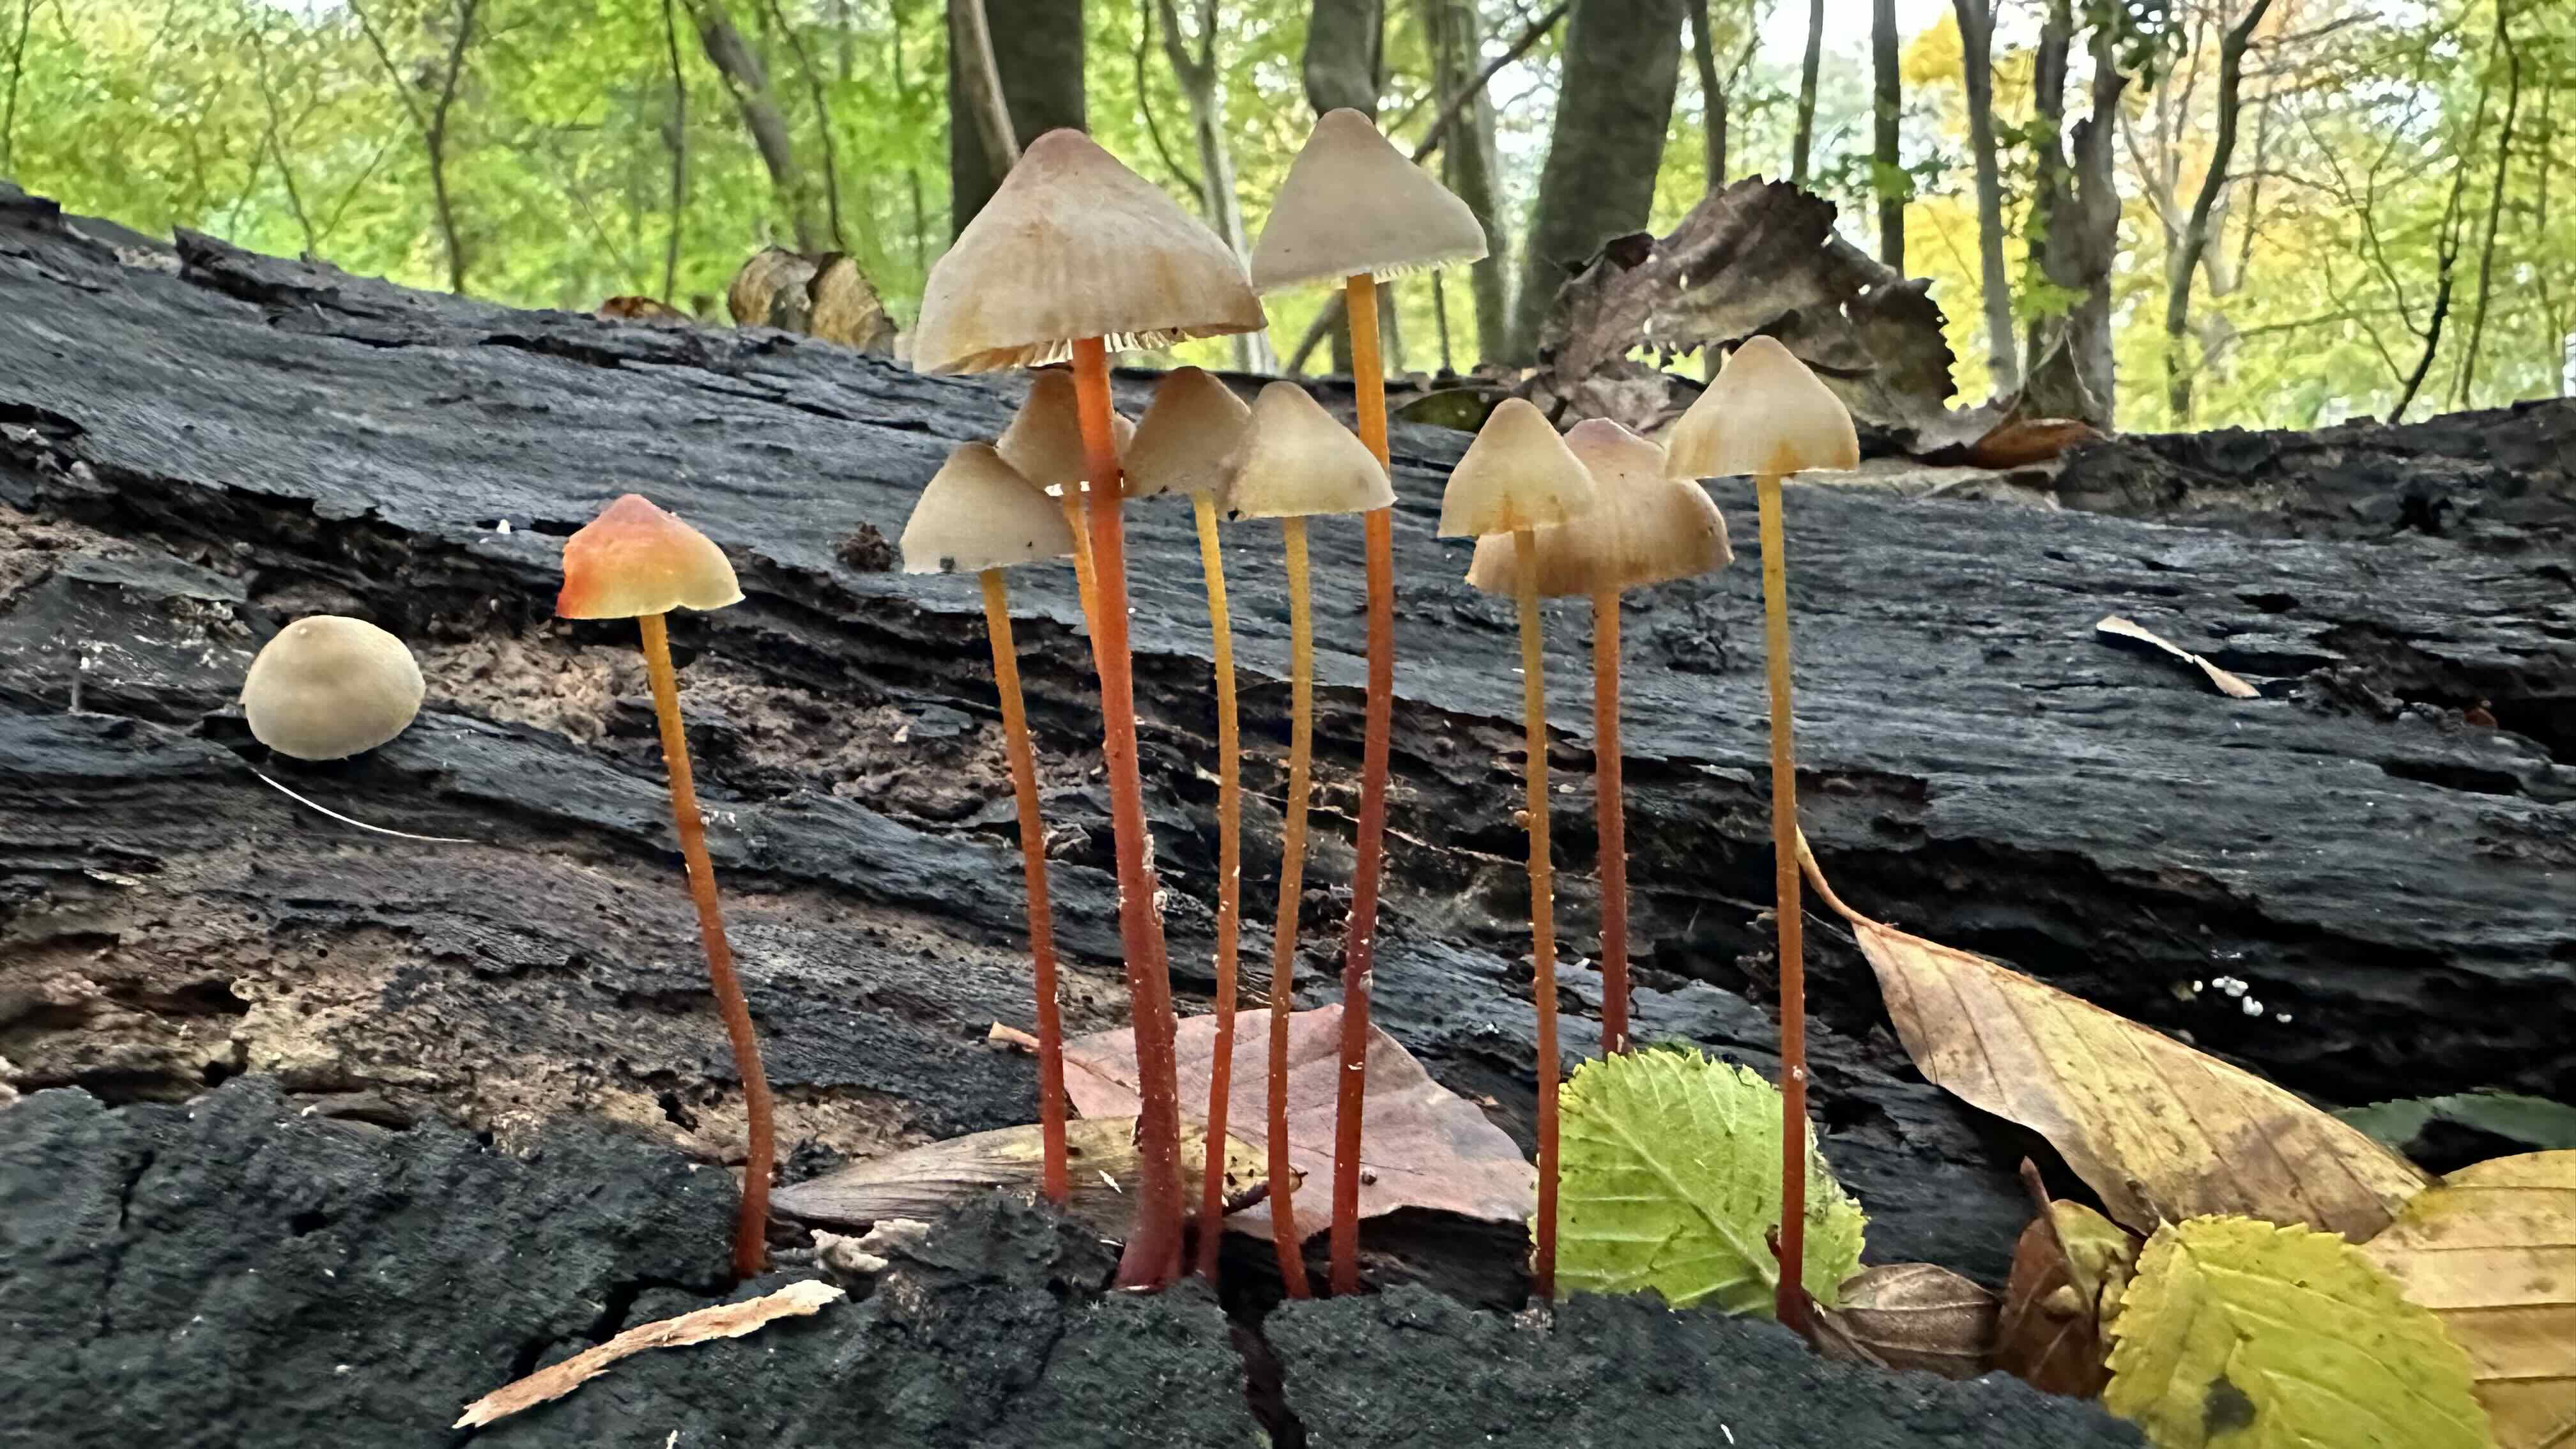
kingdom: Fungi
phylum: Basidiomycota
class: Agaricomycetes
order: Agaricales
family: Mycenaceae
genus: Mycena
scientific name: Mycena crocata
